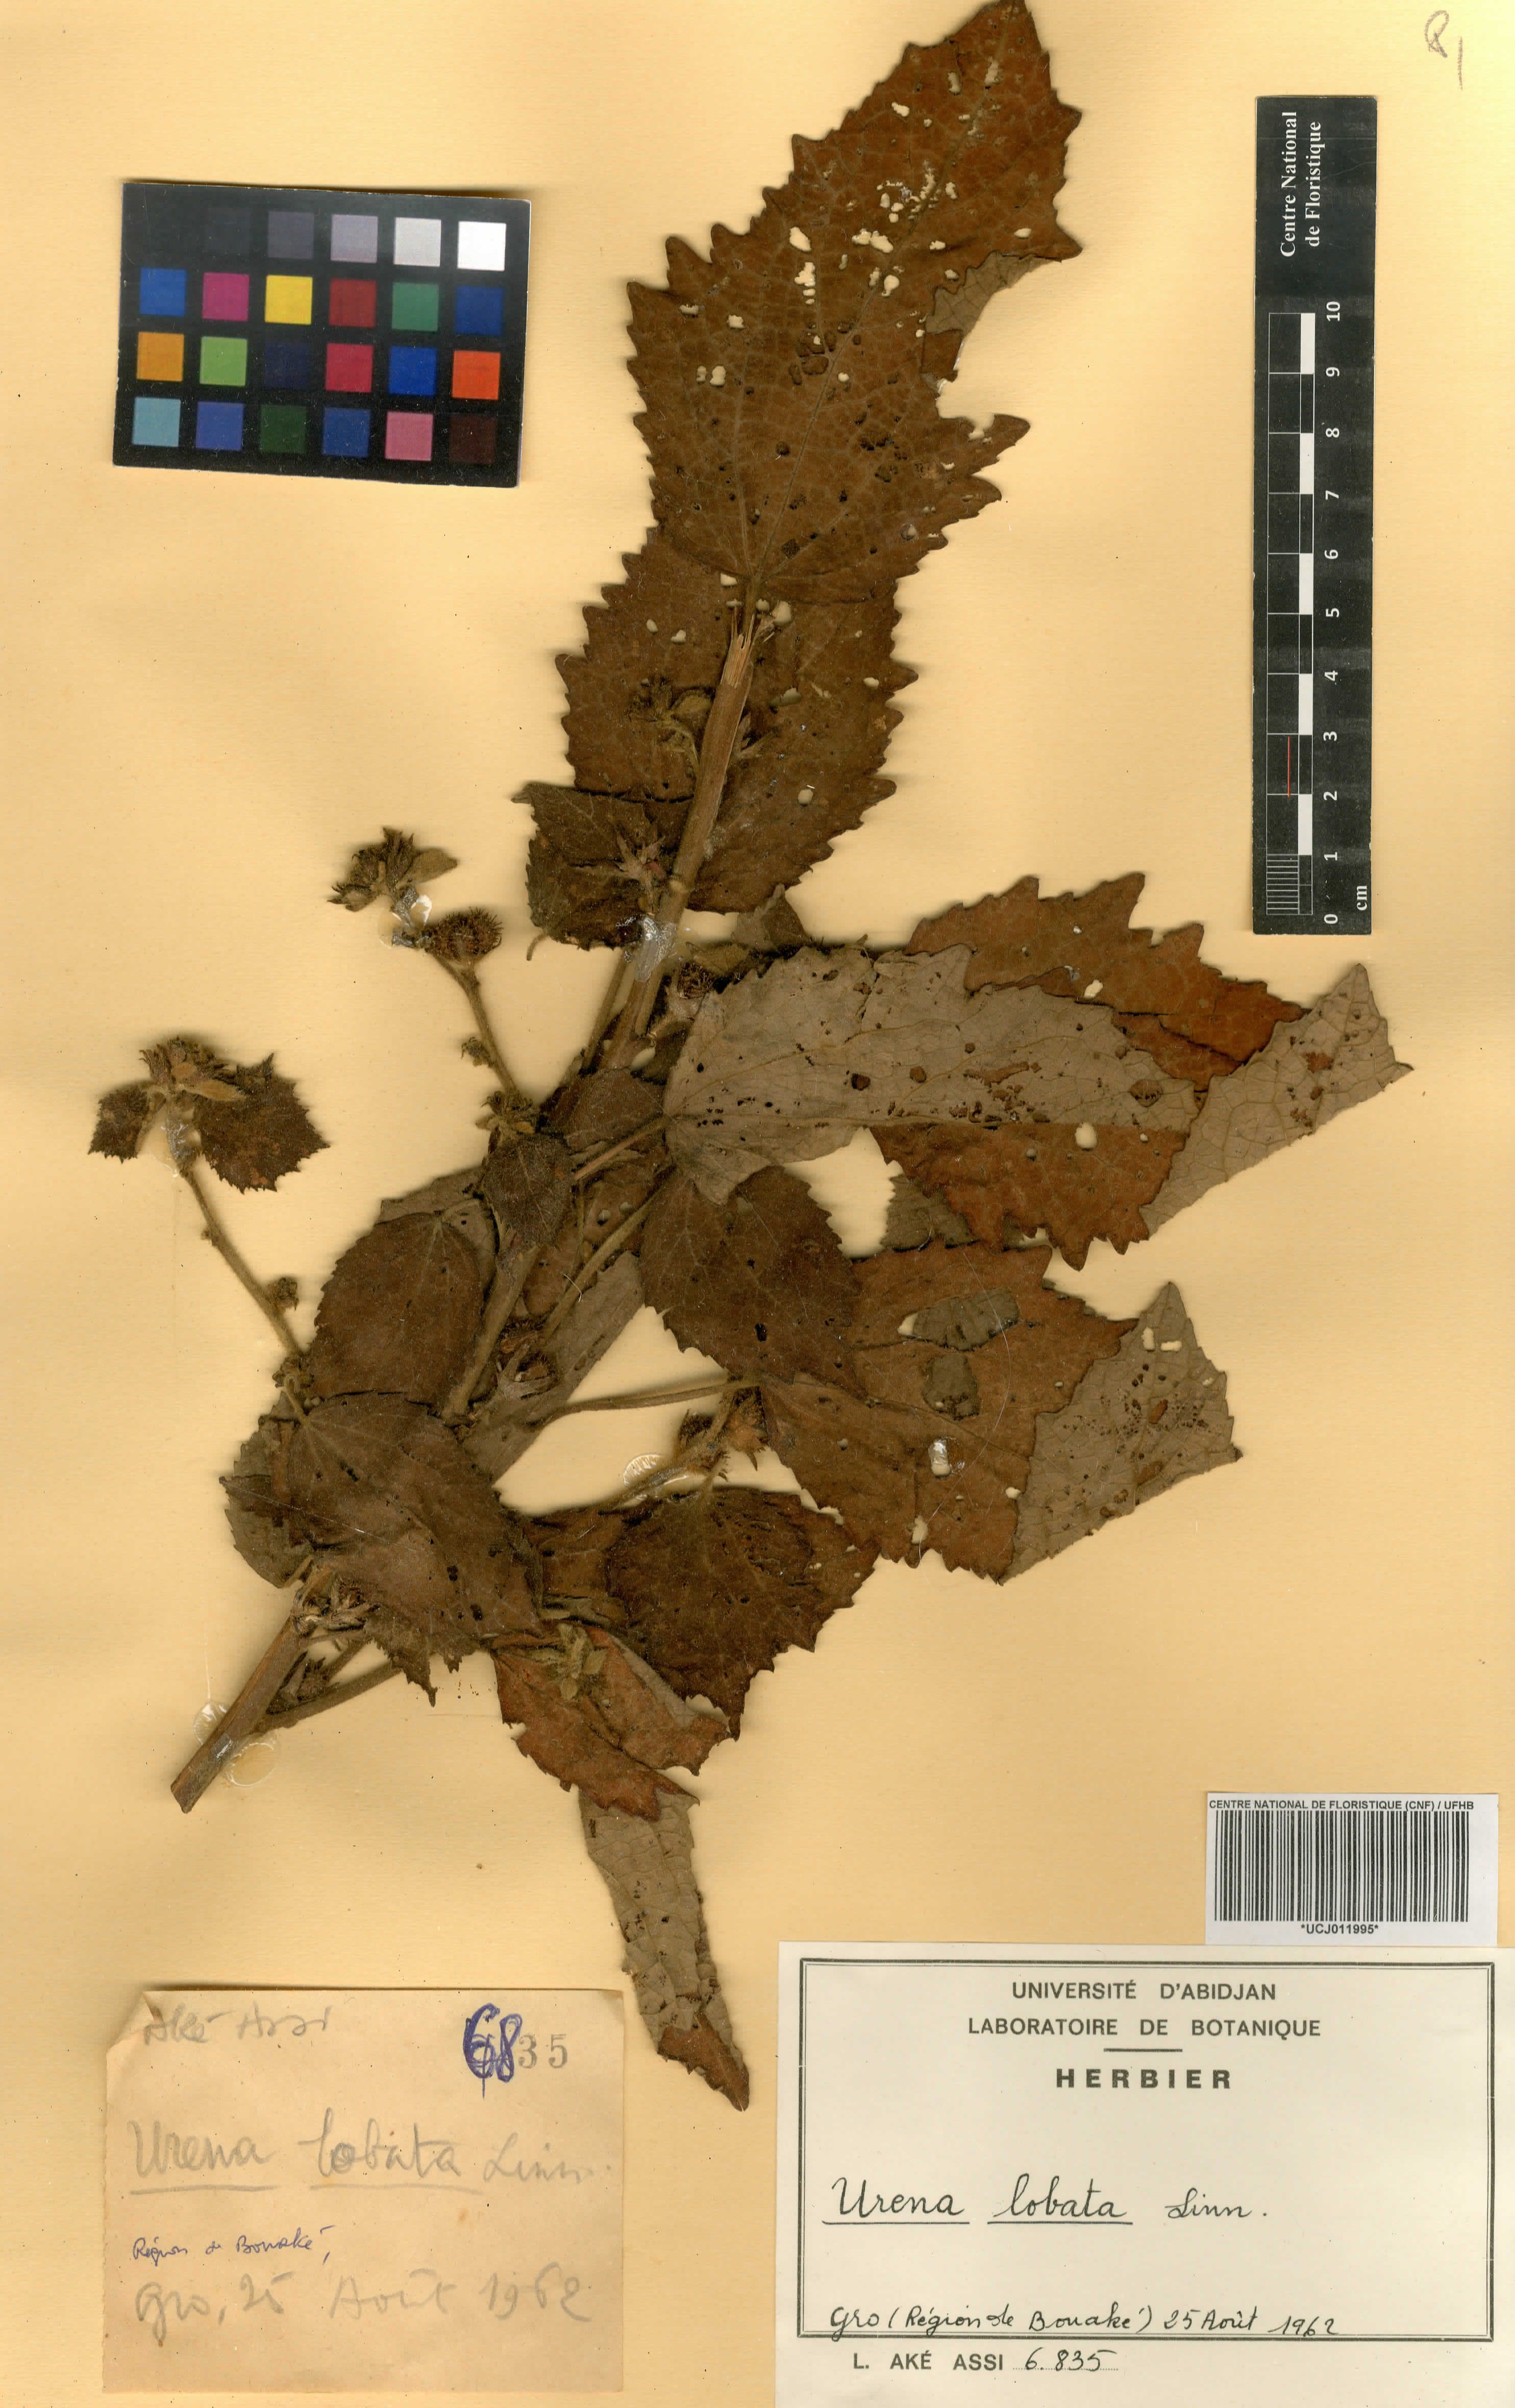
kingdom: Plantae
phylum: Tracheophyta
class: Magnoliopsida
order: Malvales
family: Malvaceae
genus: Urena
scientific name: Urena lobata
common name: Caesarweed
